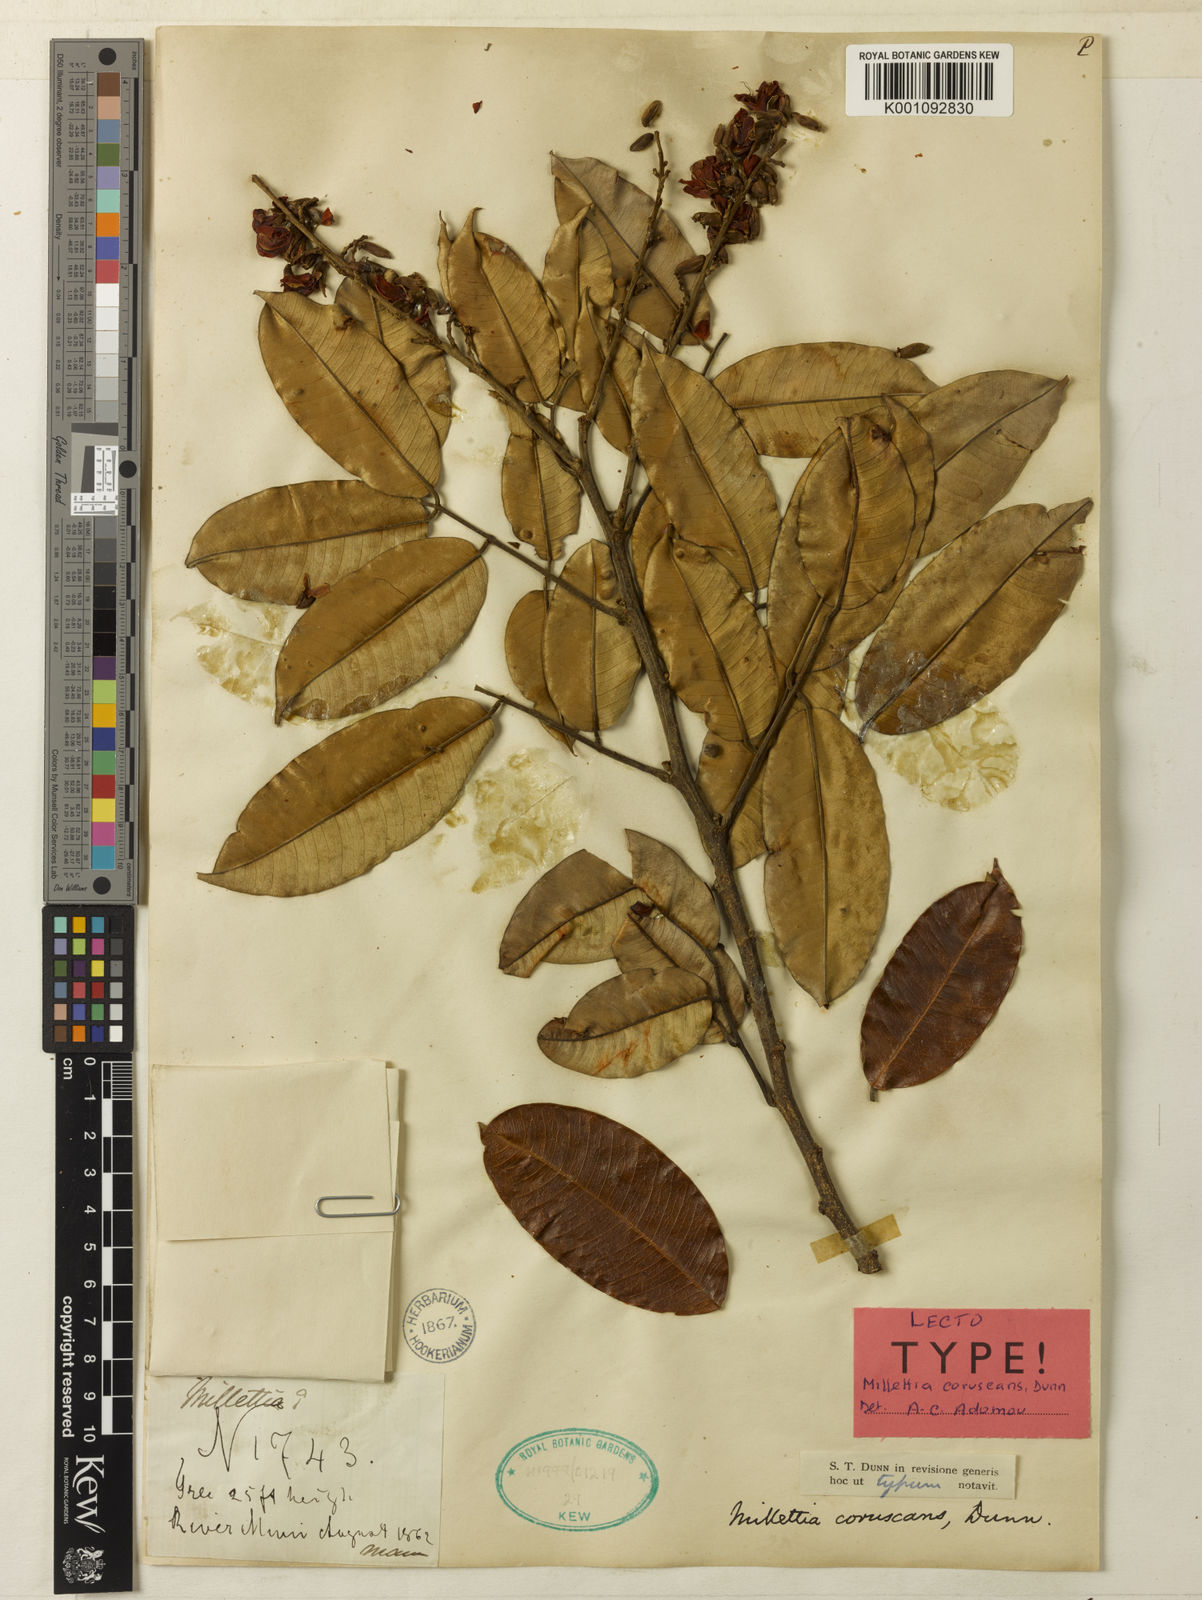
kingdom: Plantae
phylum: Tracheophyta
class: Magnoliopsida
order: Fabales
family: Fabaceae
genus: Millettia
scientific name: Millettia coruscans
